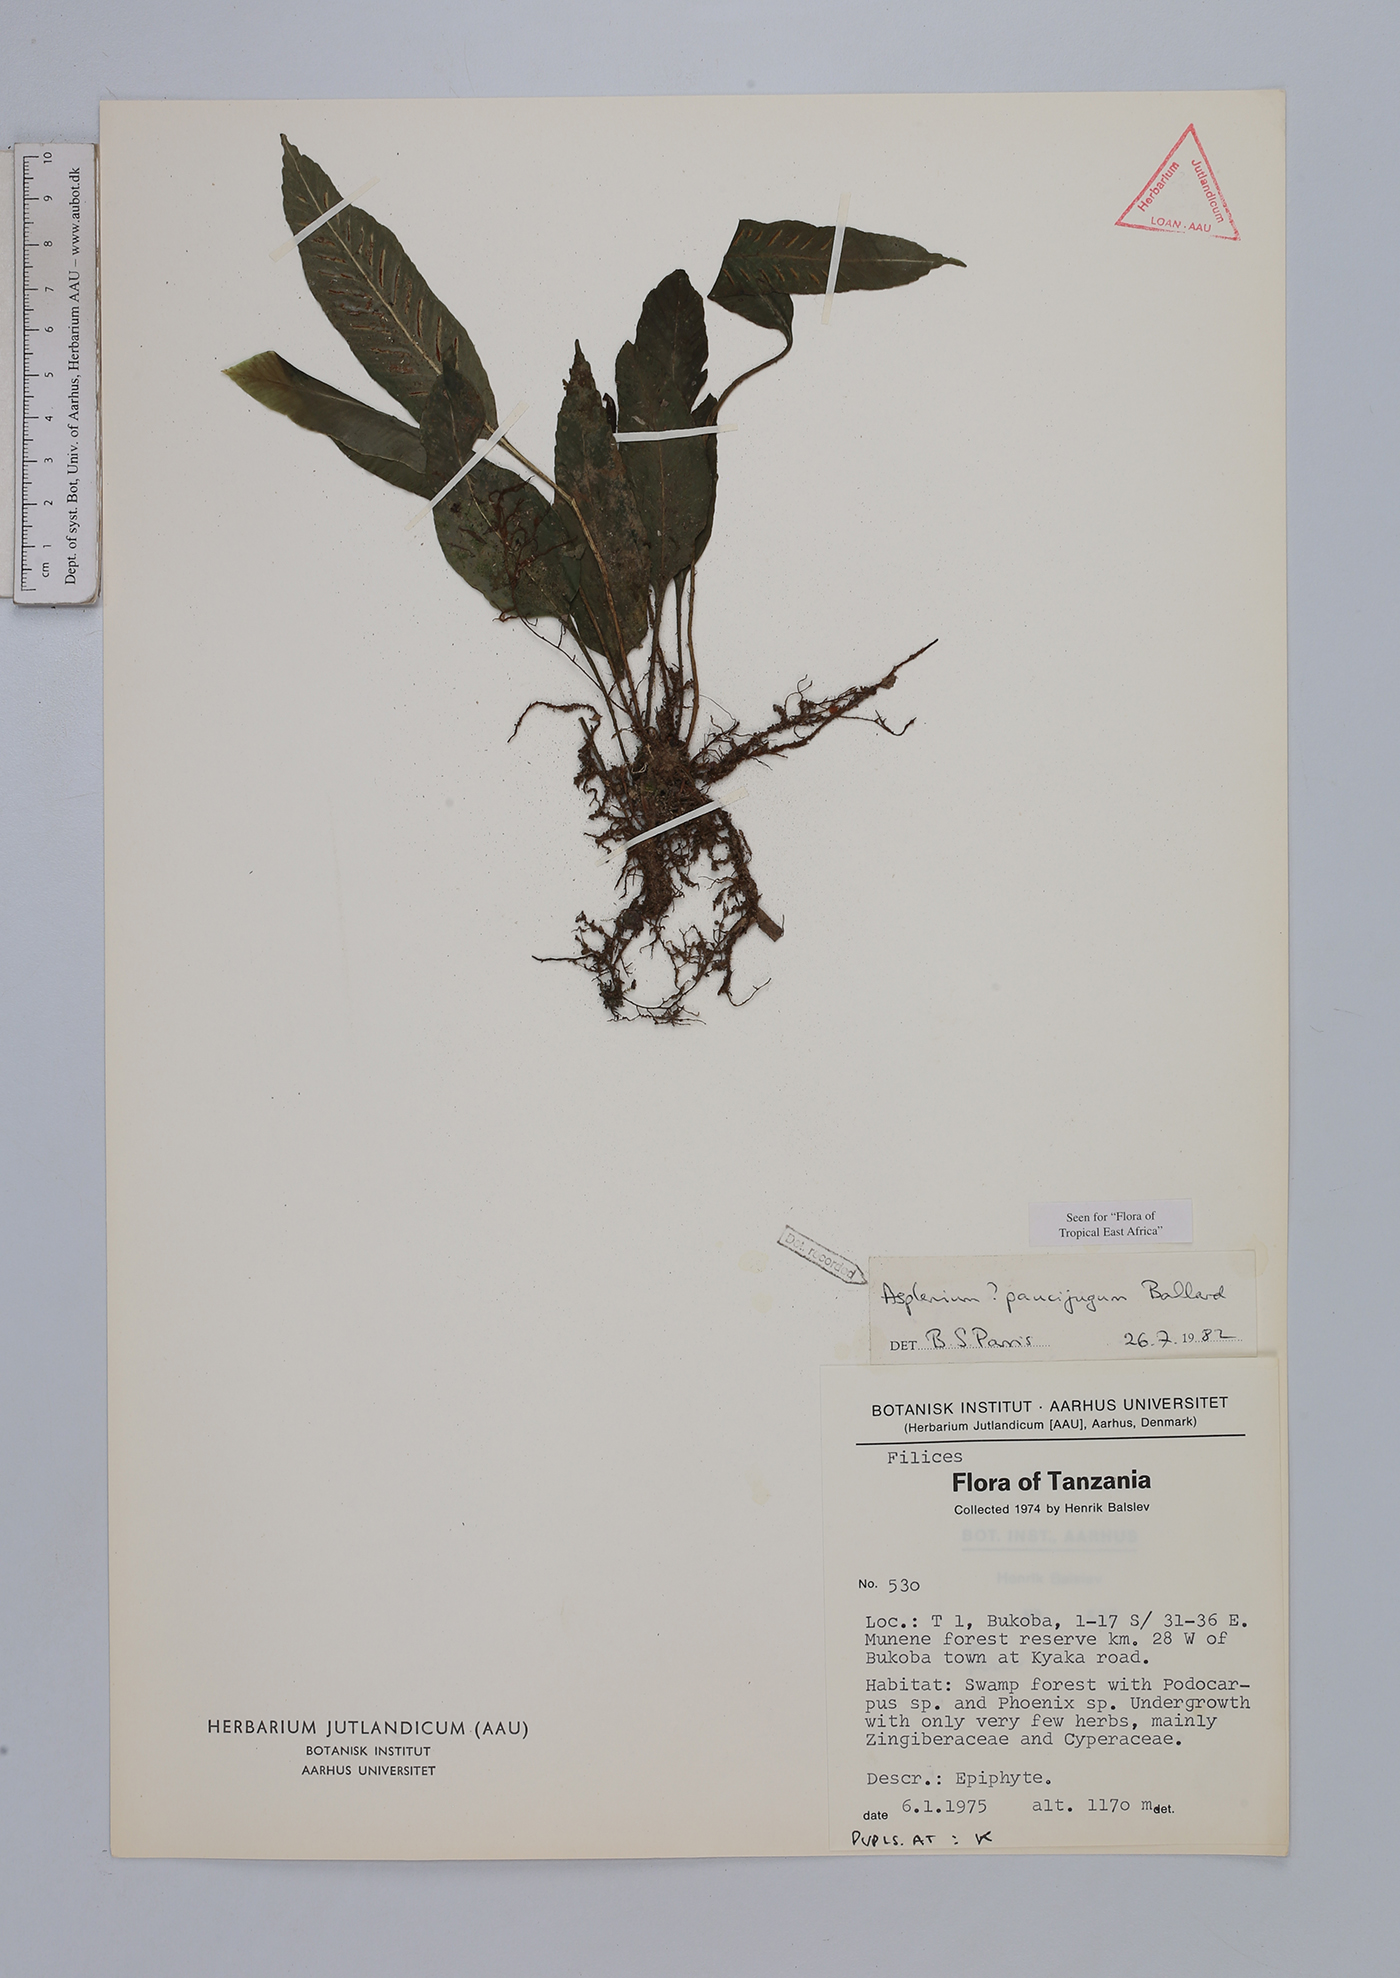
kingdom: Plantae
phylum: Tracheophyta
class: Polypodiopsida
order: Polypodiales
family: Aspleniaceae
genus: Asplenium
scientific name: Asplenium variabile
